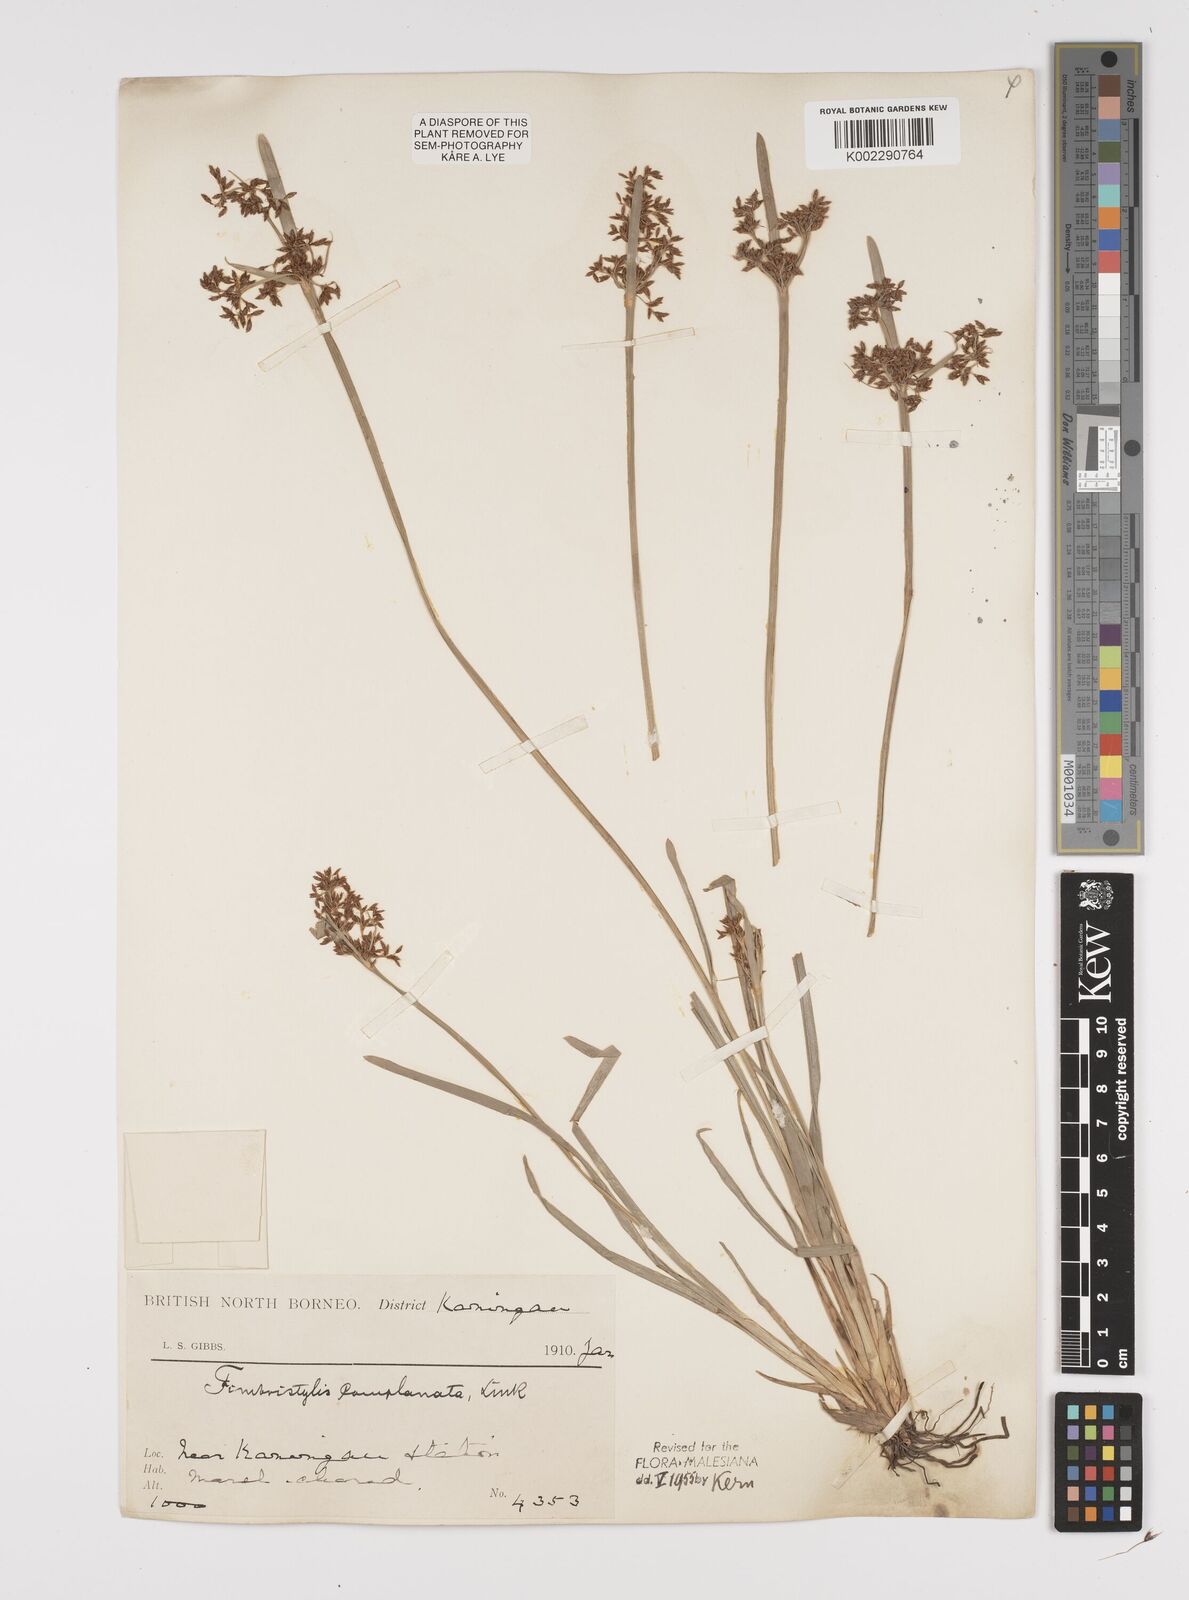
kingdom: Plantae
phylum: Tracheophyta
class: Liliopsida
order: Poales
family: Cyperaceae
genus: Fimbristylis
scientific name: Fimbristylis complanata
